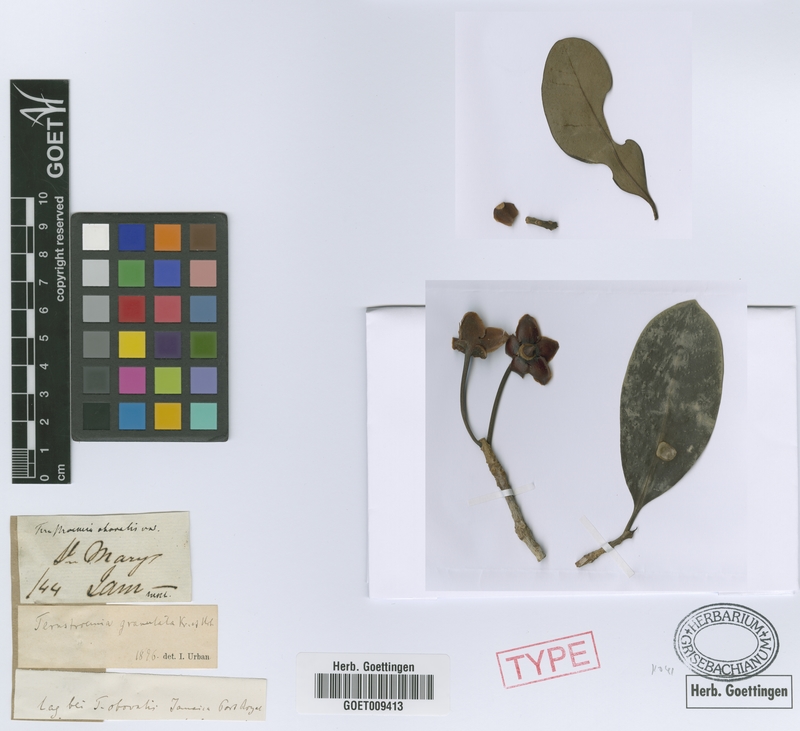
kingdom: Plantae
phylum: Tracheophyta
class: Magnoliopsida
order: Ericales
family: Pentaphylacaceae
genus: Ternstroemia
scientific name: Ternstroemia granulata
